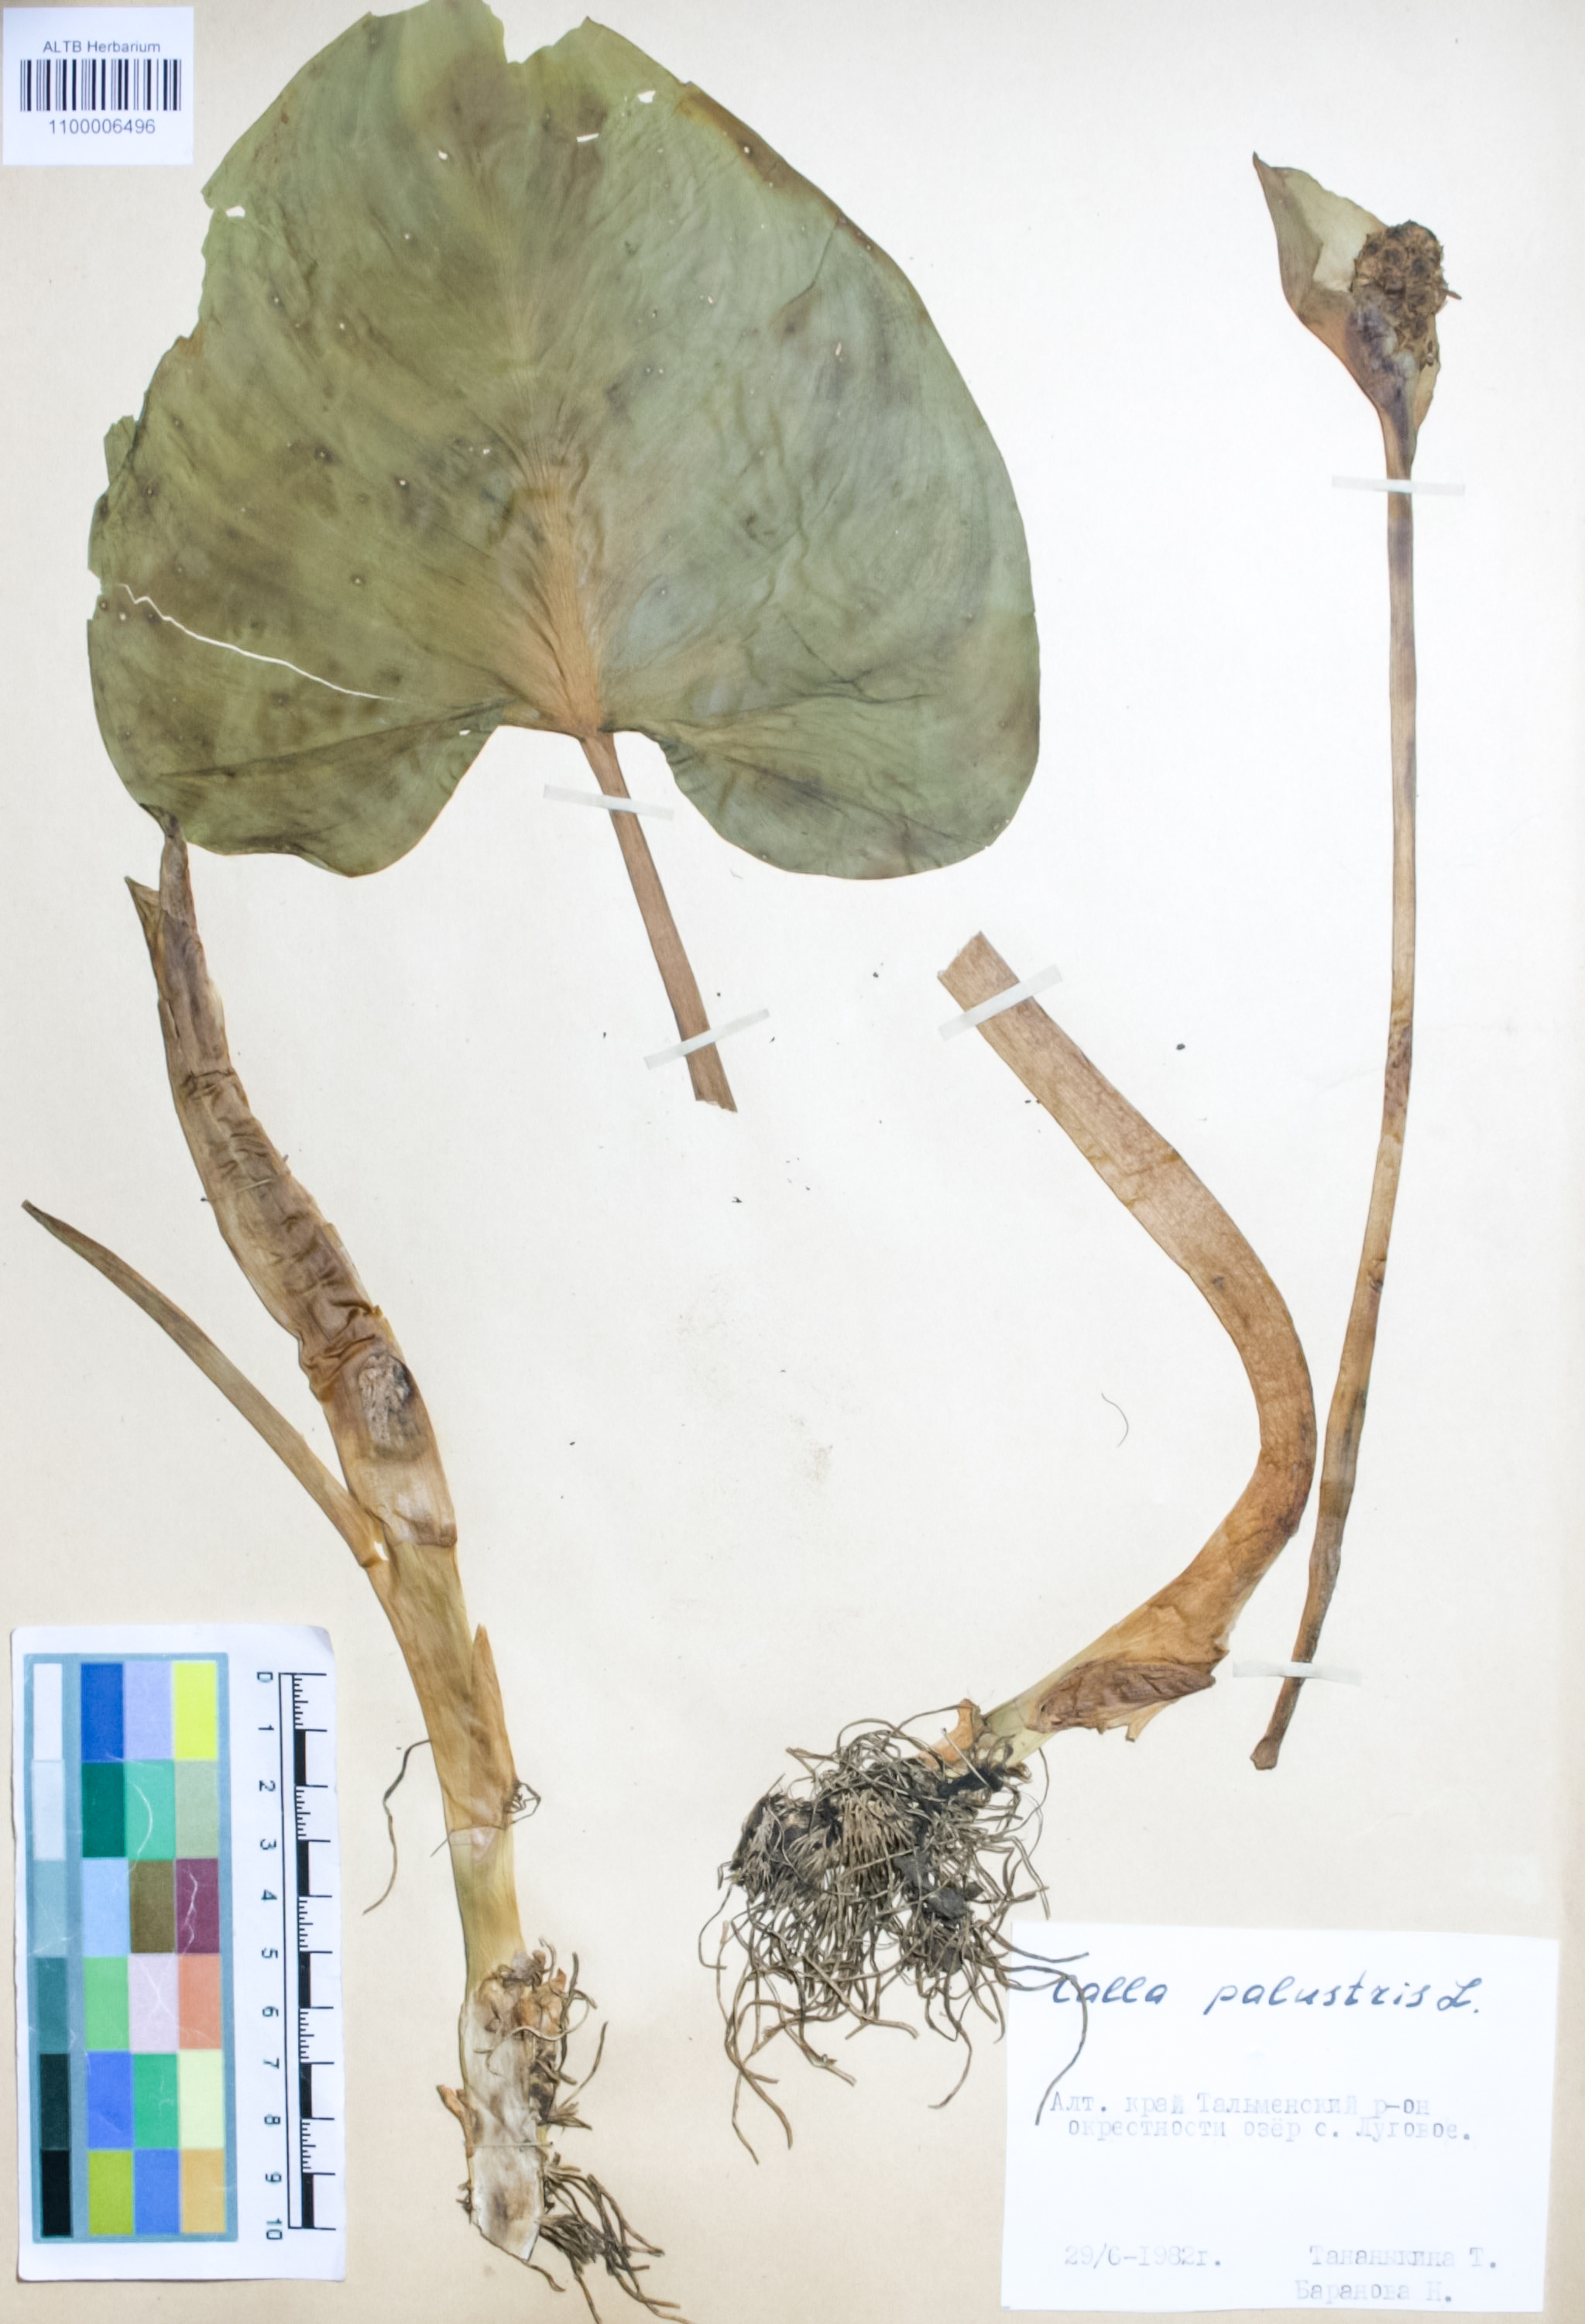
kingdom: Plantae
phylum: Tracheophyta
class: Liliopsida
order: Alismatales
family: Araceae
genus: Calla
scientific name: Calla palustris
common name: Bog arum
